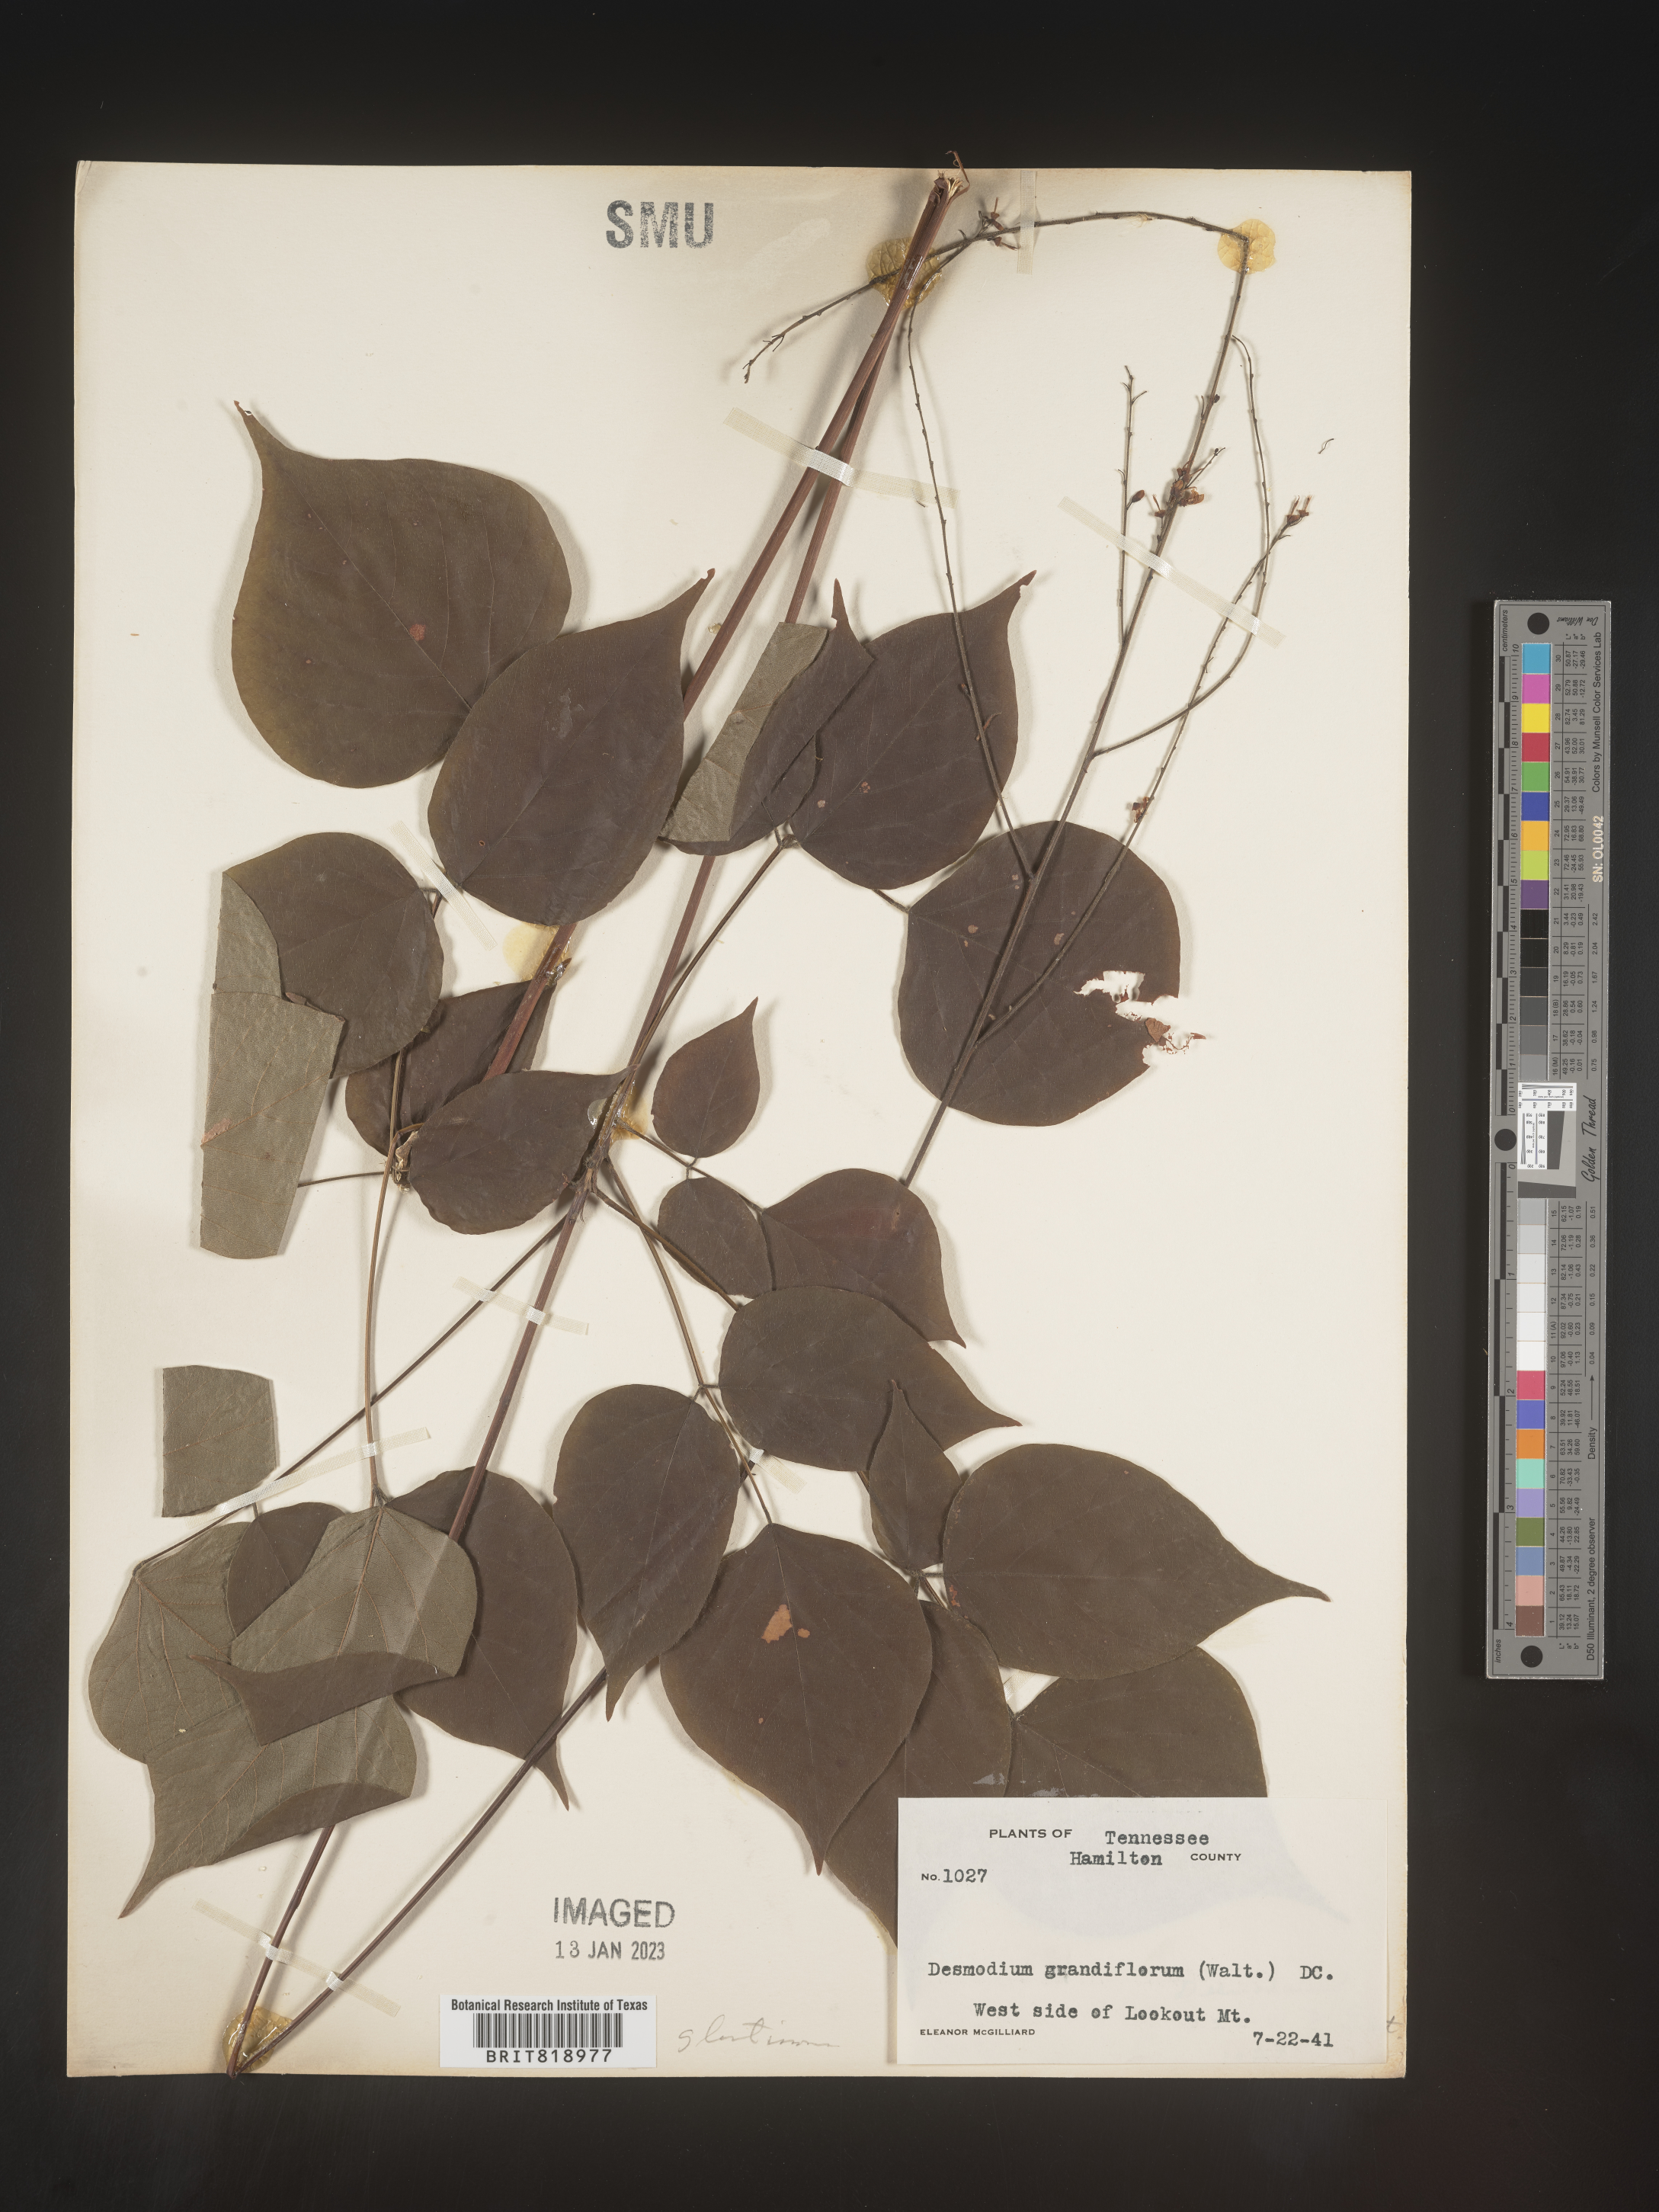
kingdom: Plantae
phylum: Tracheophyta
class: Magnoliopsida
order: Fabales
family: Fabaceae
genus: Hylodesmum
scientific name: Hylodesmum glutinosum
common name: Clustered-leaved tick-trefoil
